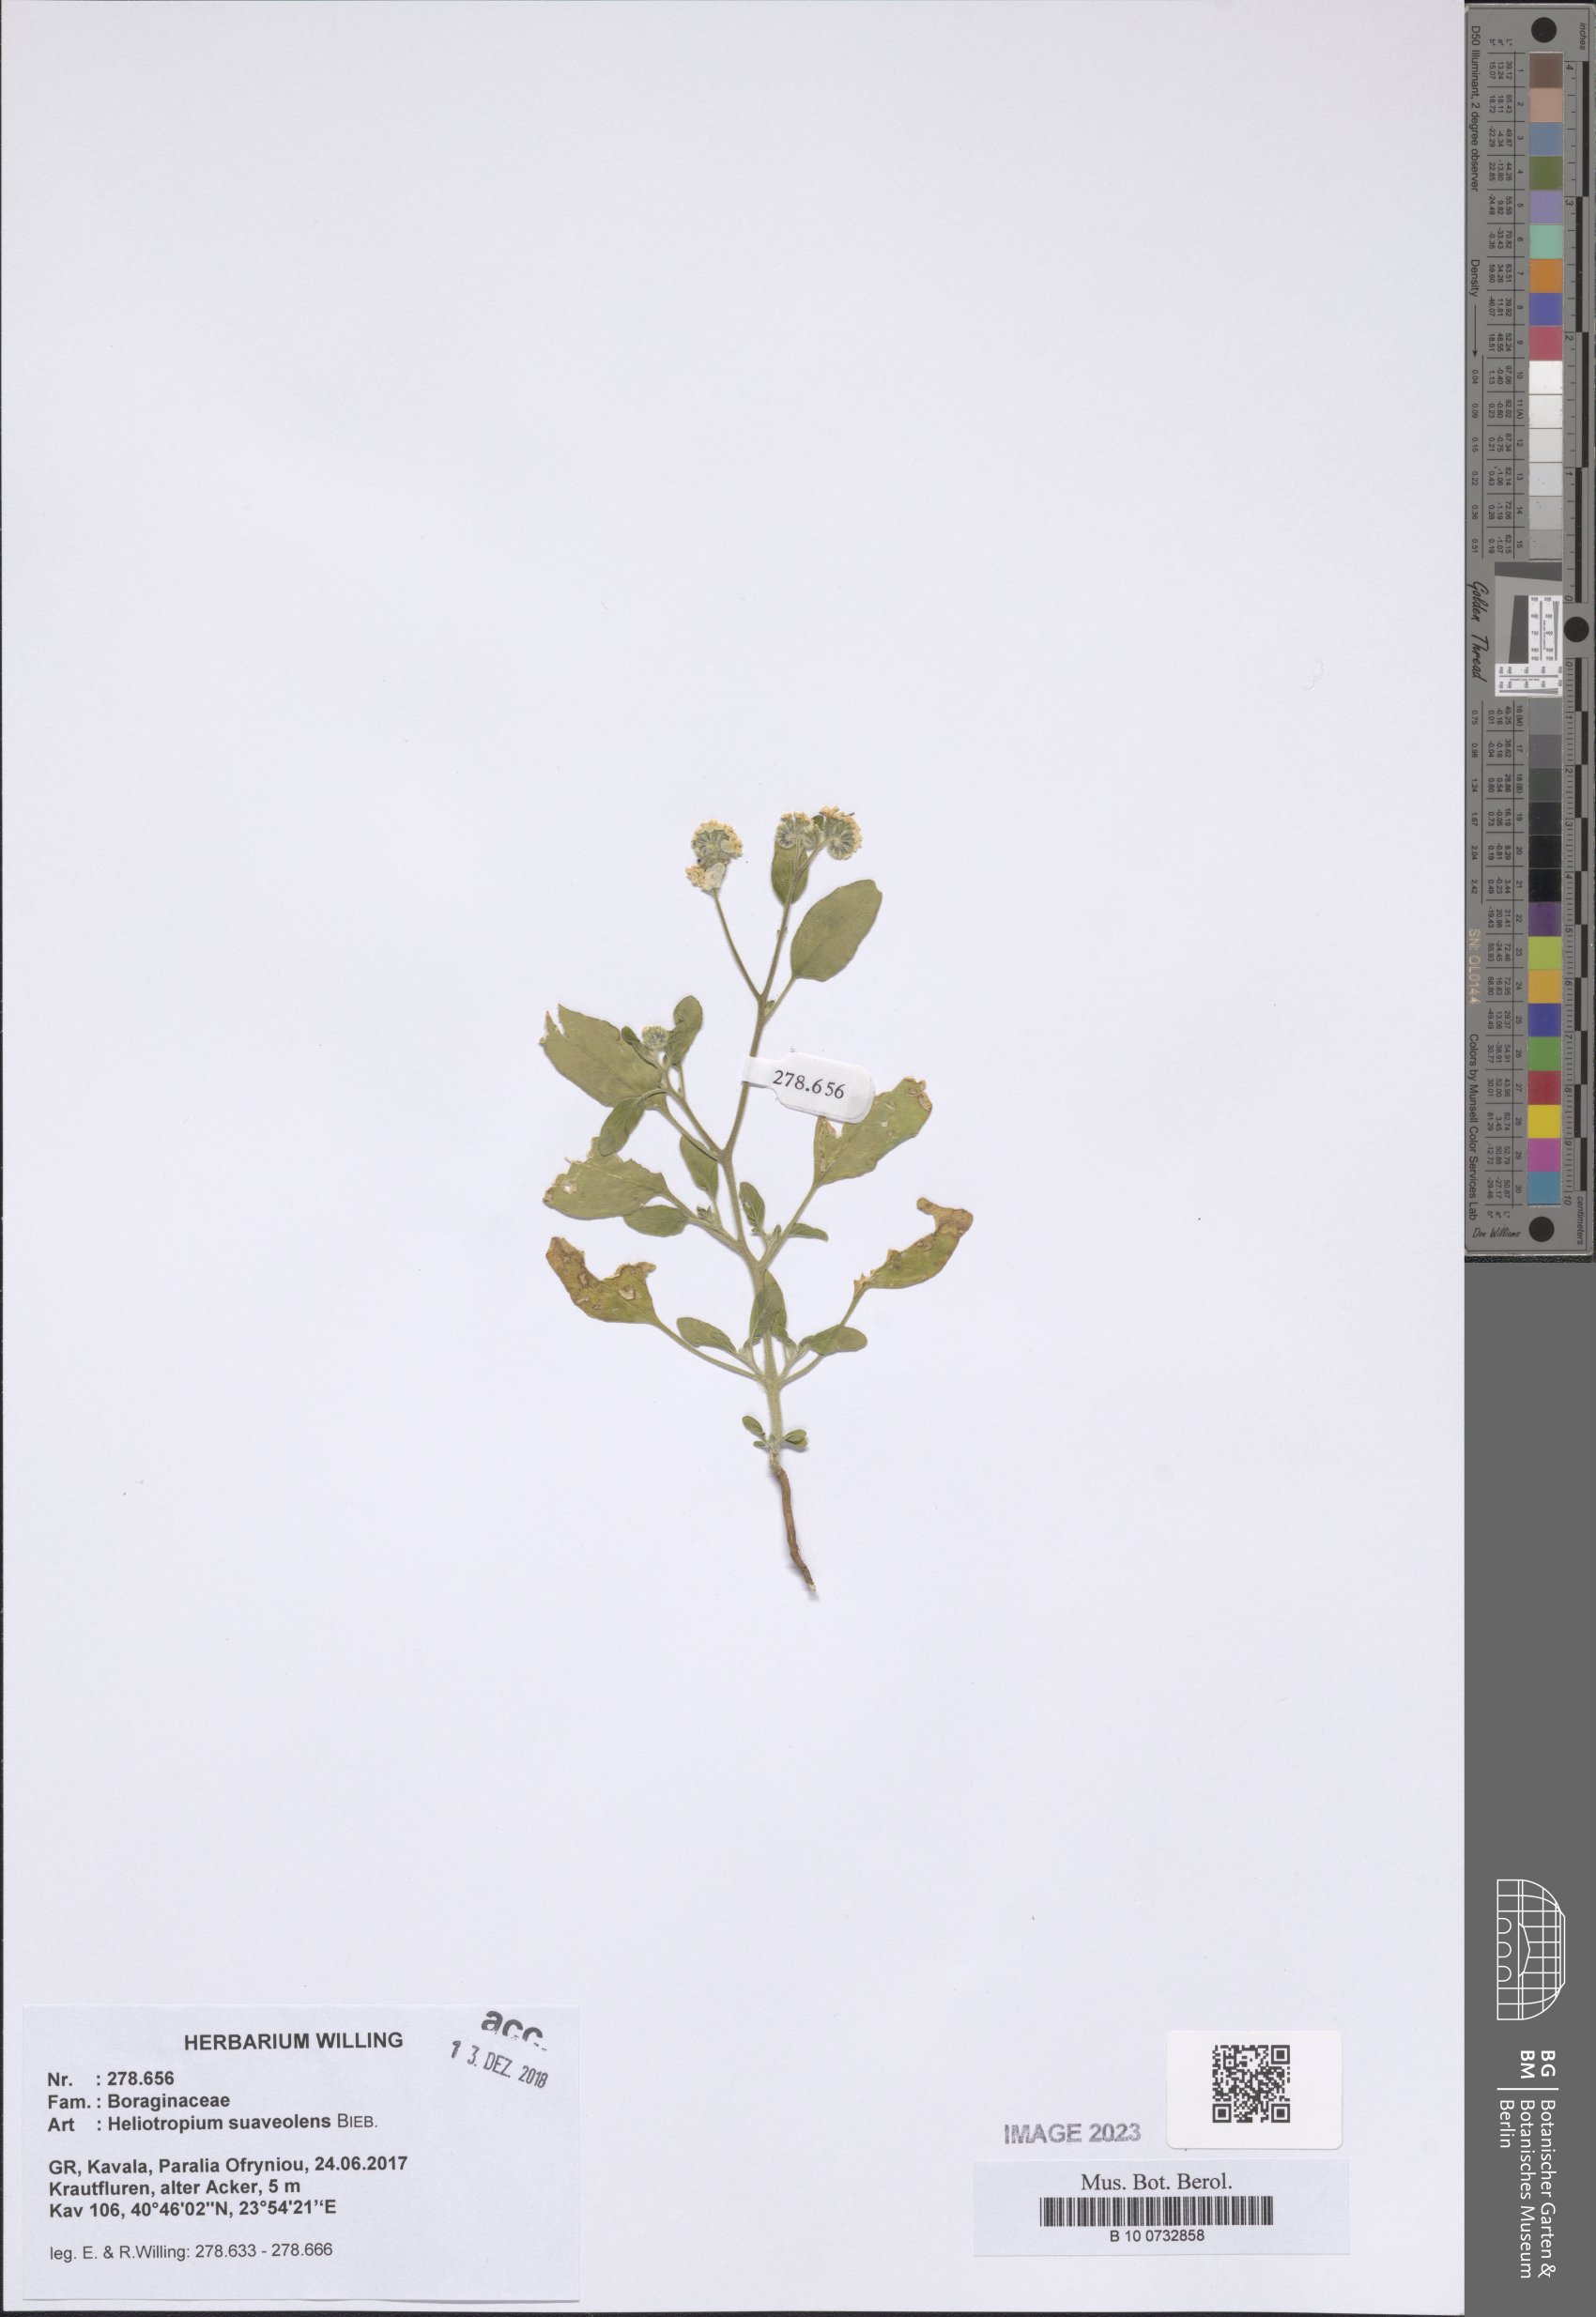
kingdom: Plantae
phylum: Tracheophyta
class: Magnoliopsida
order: Boraginales
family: Heliotropiaceae
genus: Heliotropium
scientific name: Heliotropium suaveolens
